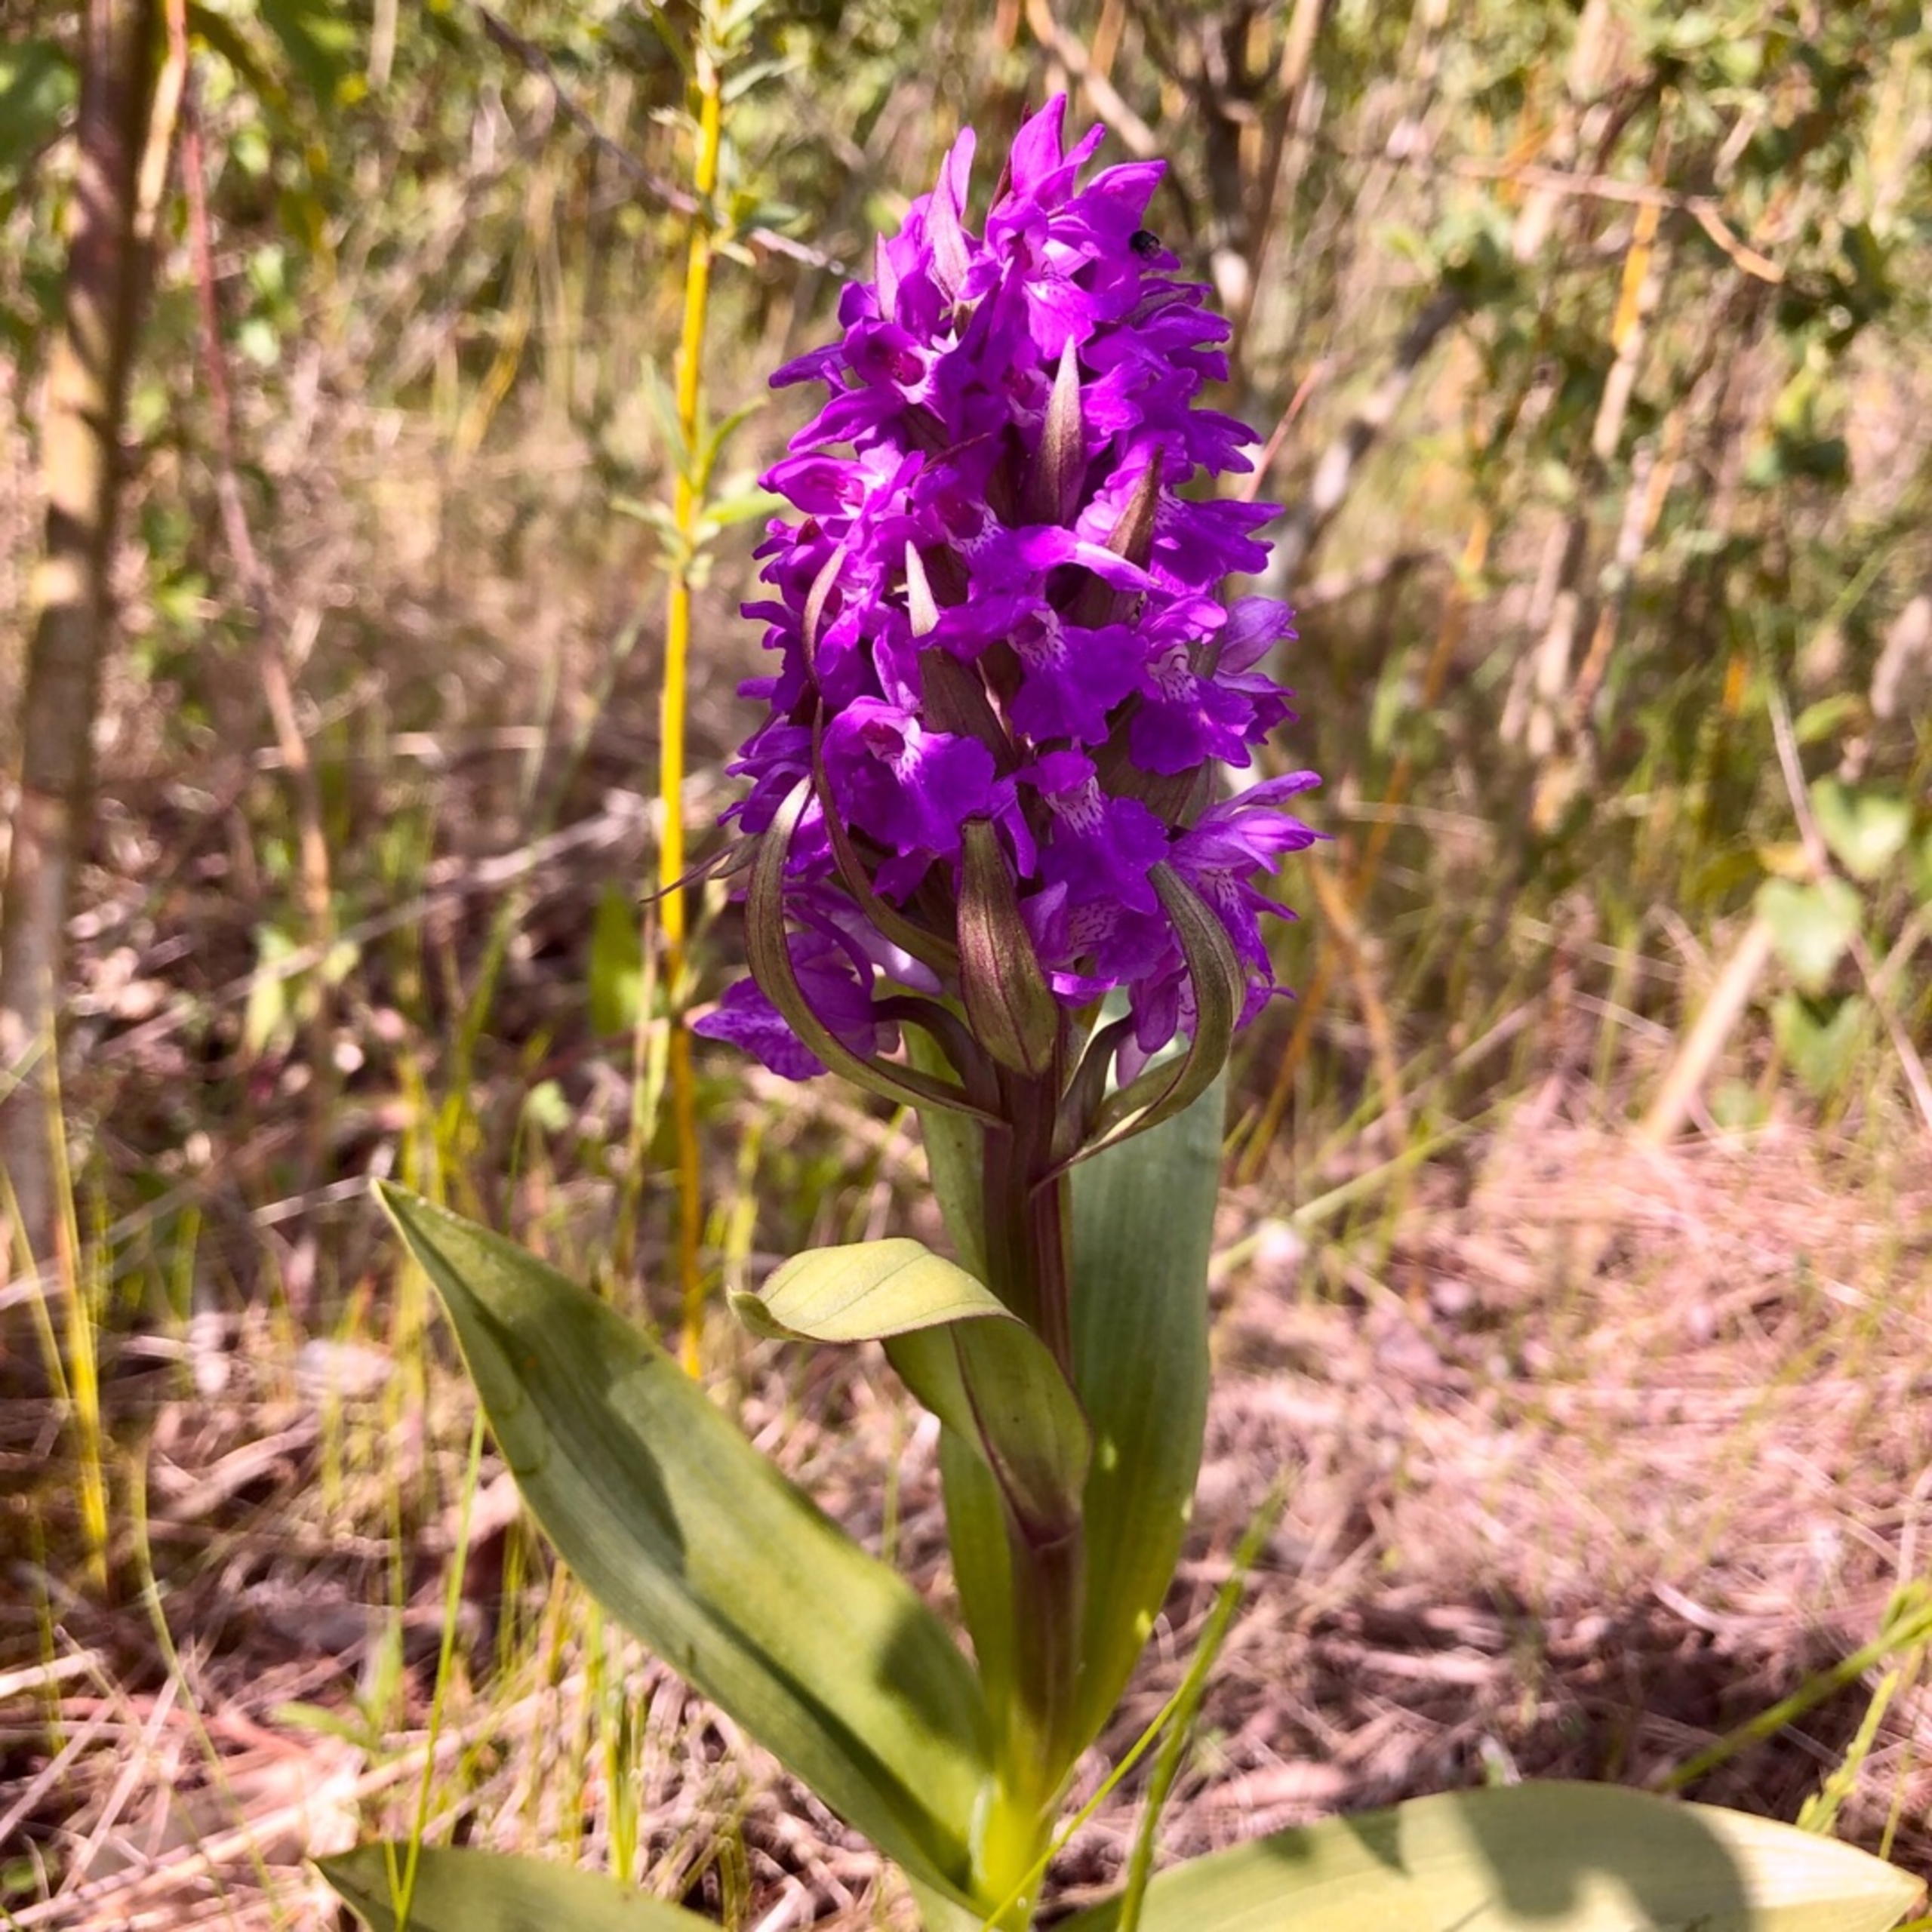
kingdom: Plantae
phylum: Tracheophyta
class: Liliopsida
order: Asparagales
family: Orchidaceae
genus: Dactylorhiza
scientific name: Dactylorhiza majalis
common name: Maj-gøgeurt
